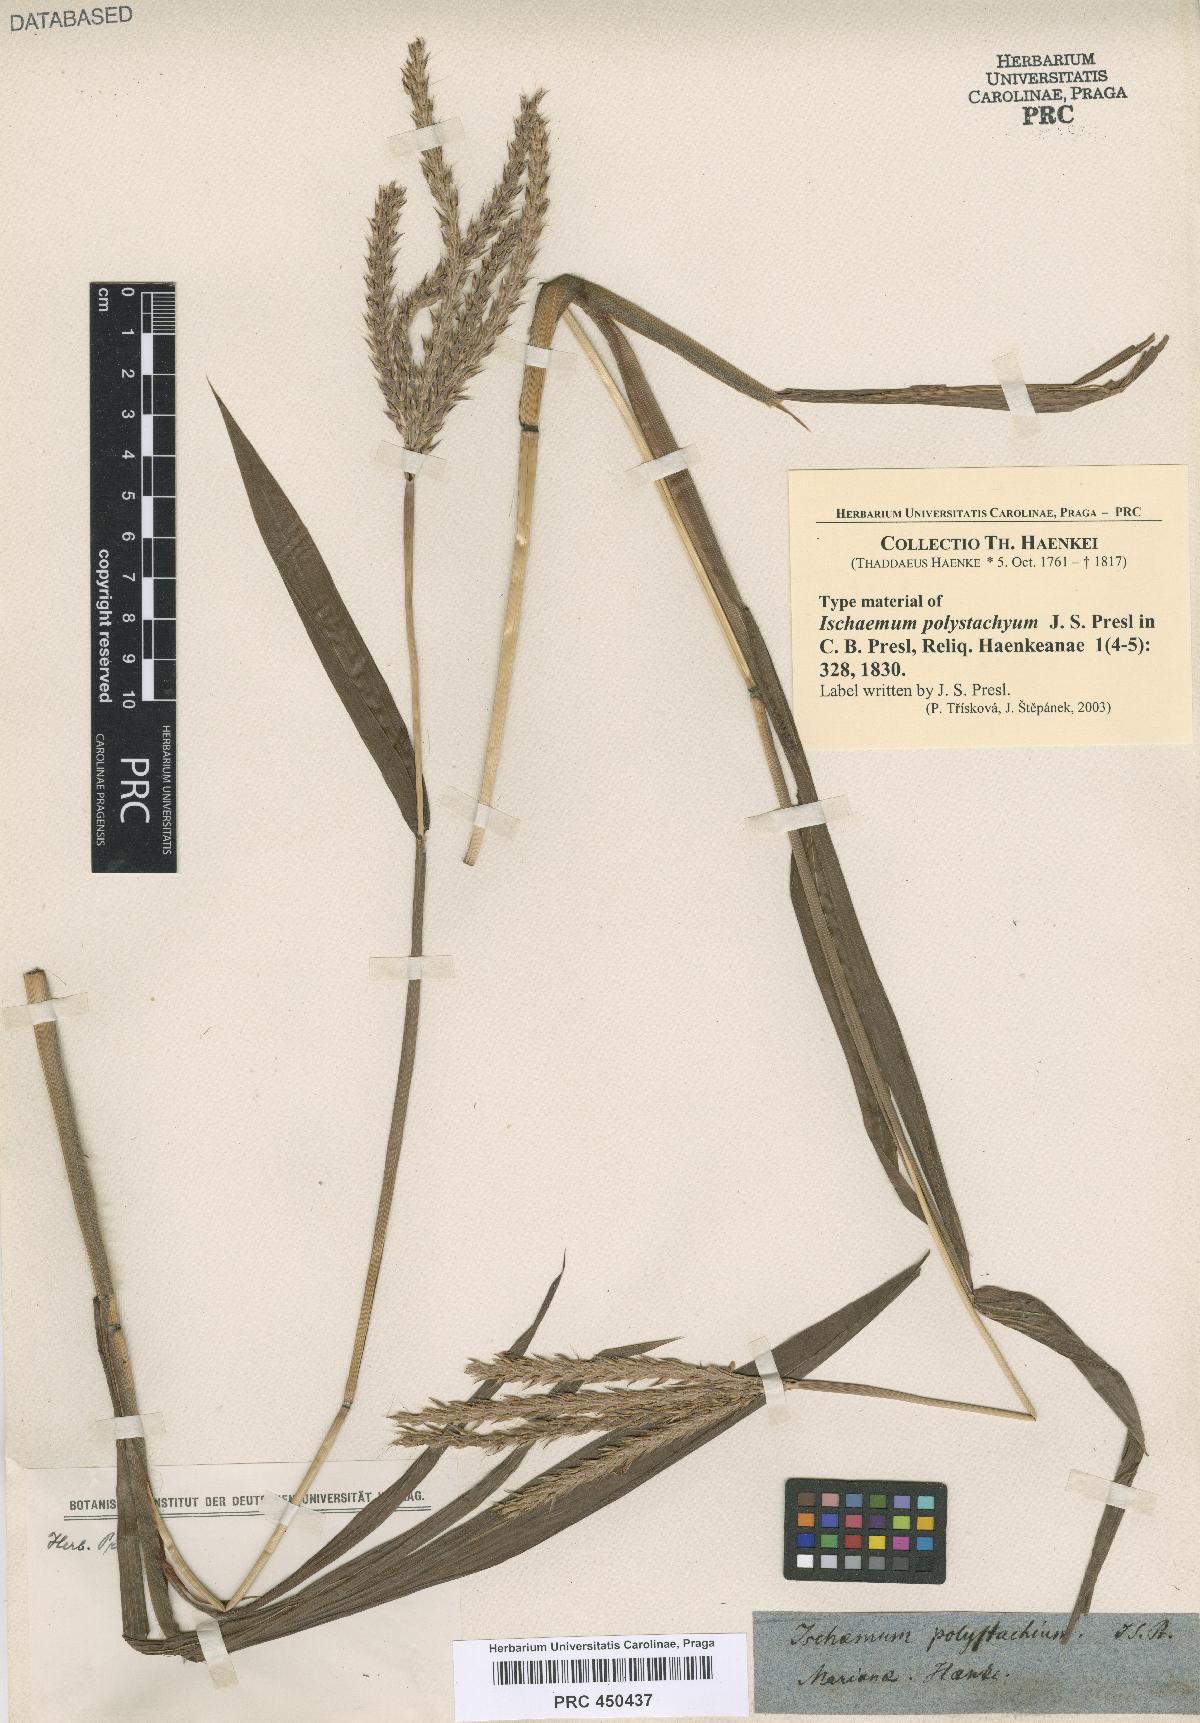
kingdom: Plantae
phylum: Tracheophyta
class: Liliopsida
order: Poales
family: Poaceae
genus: Ischaemum
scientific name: Ischaemum polystachyum
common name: Paddle grass
